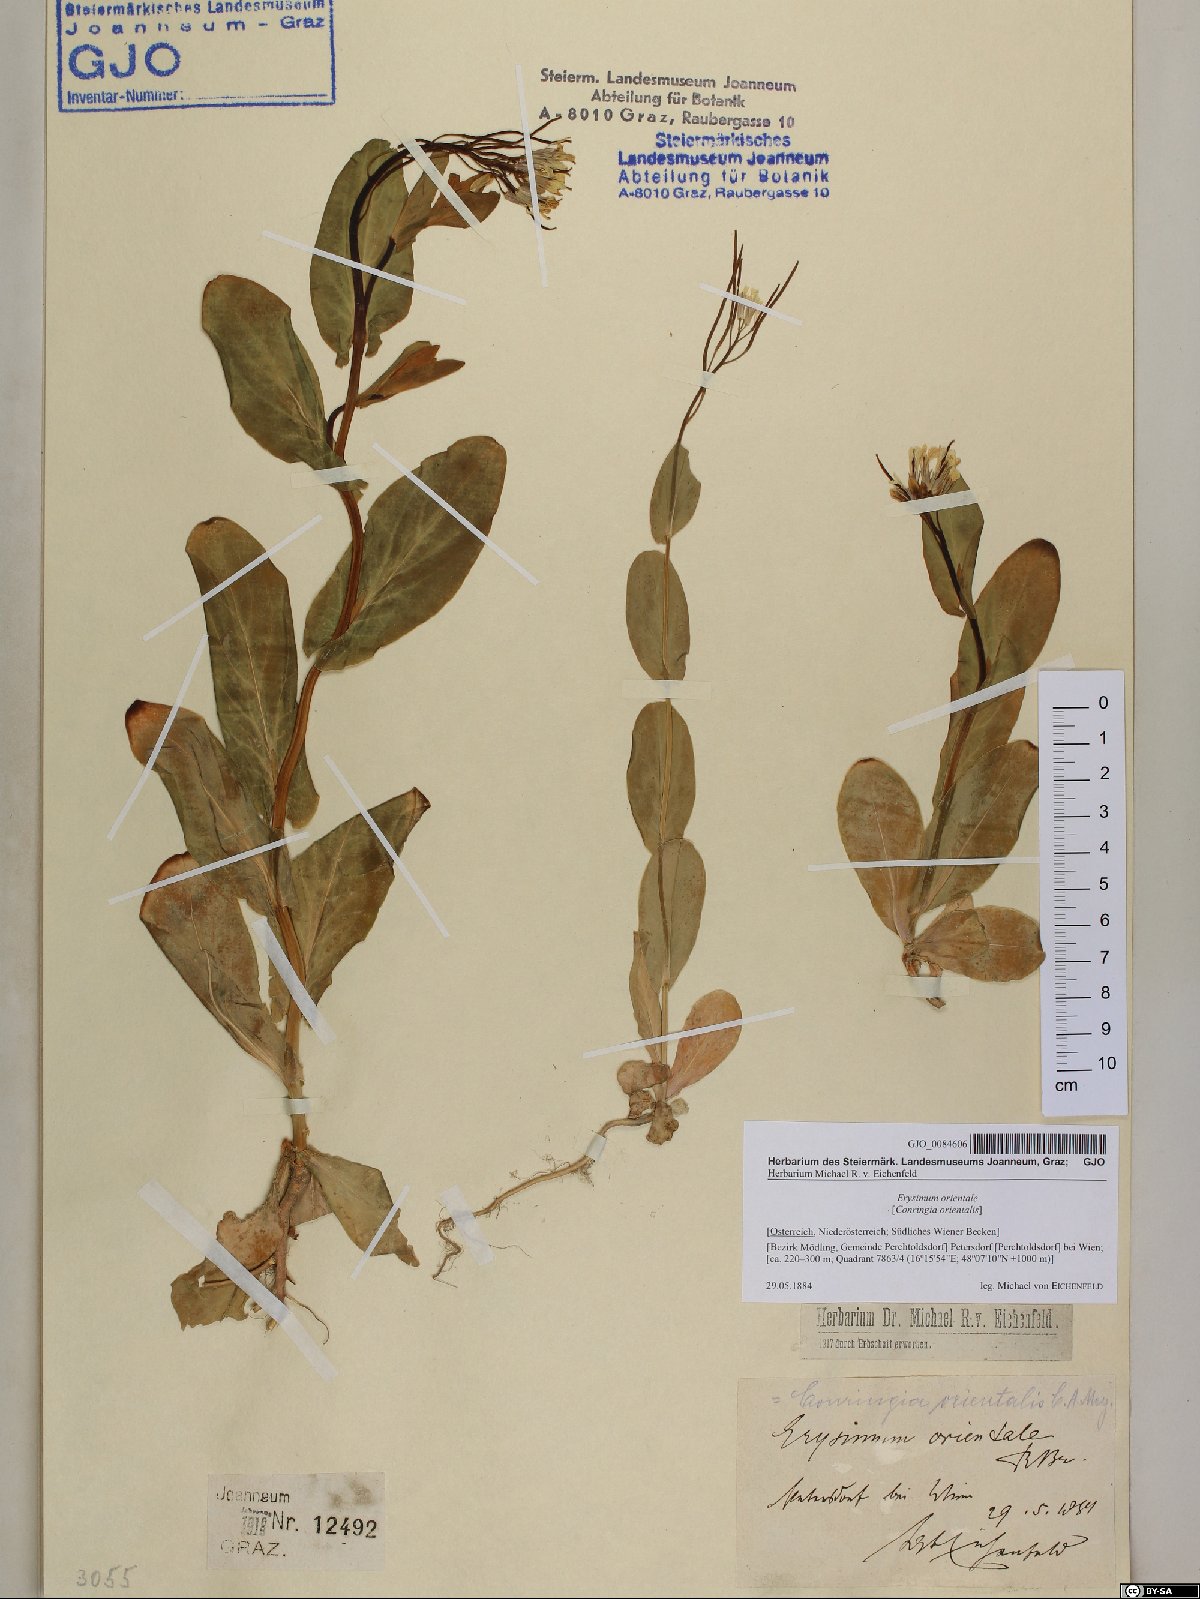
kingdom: Plantae
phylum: Tracheophyta
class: Magnoliopsida
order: Brassicales
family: Brassicaceae
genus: Conringia
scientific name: Conringia orientalis
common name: Hare's ear mustard
